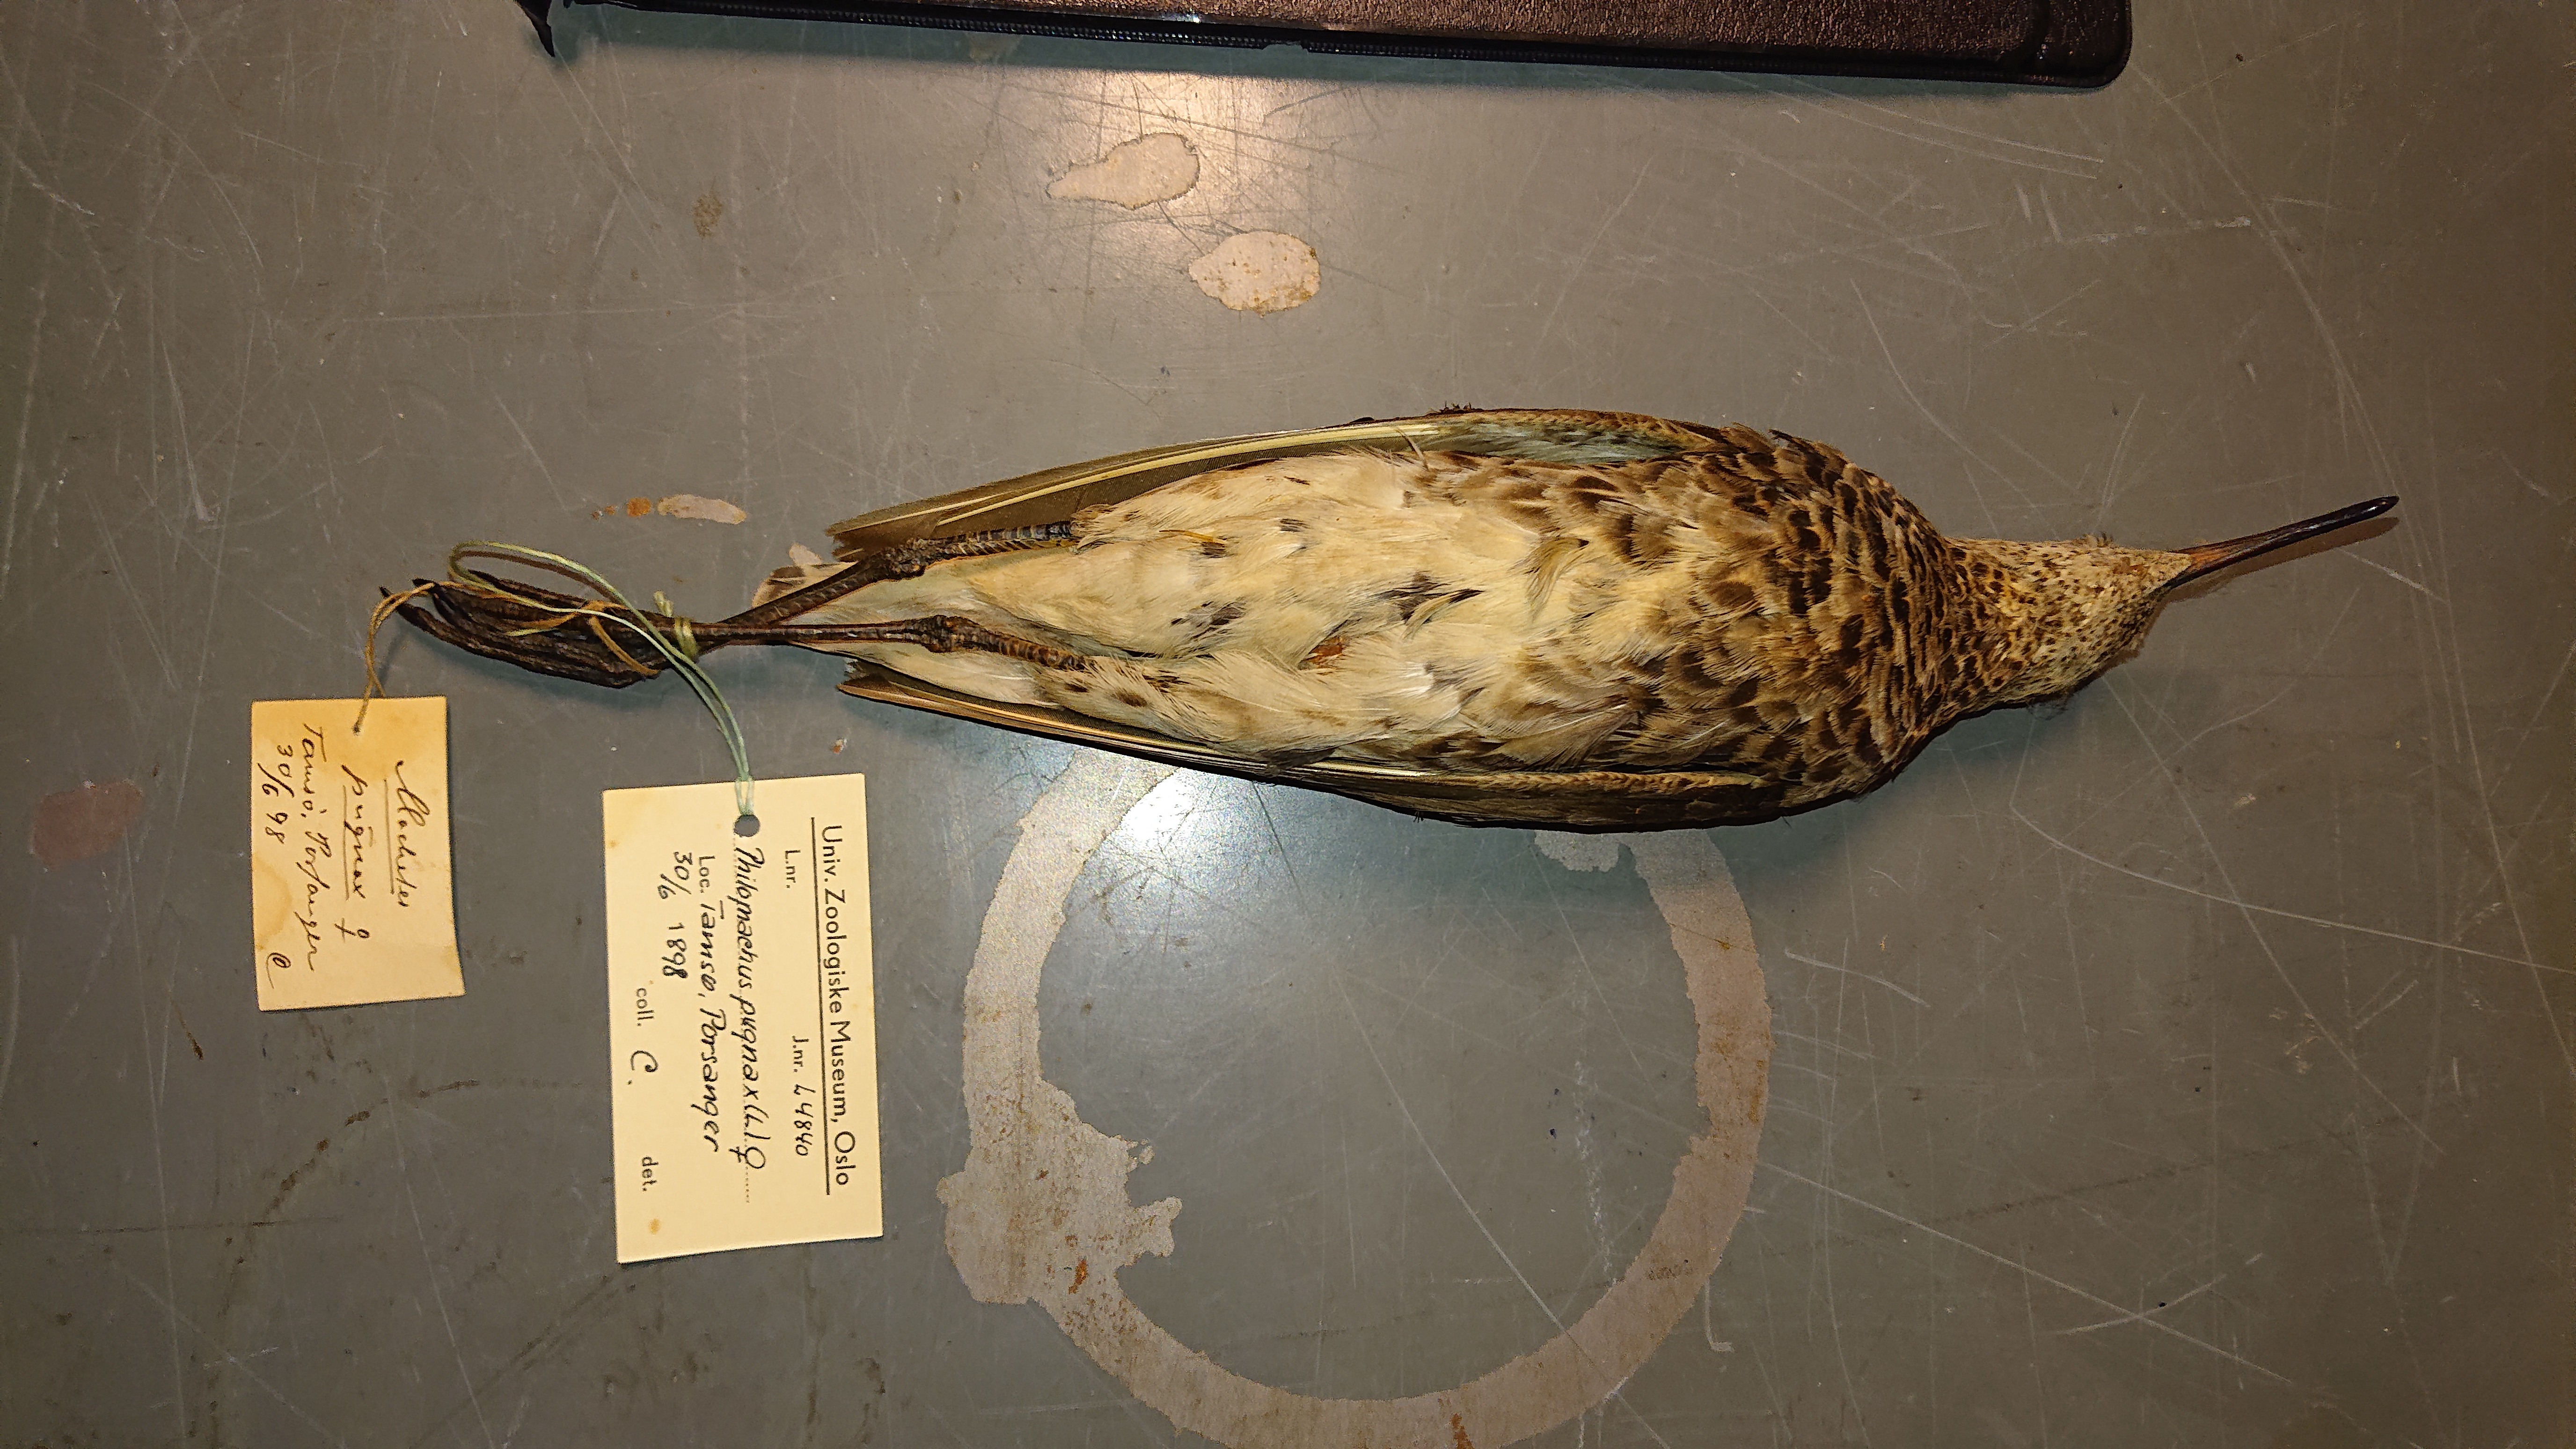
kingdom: Animalia
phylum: Chordata
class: Aves
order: Charadriiformes
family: Scolopacidae
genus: Calidris
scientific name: Calidris pugnax
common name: Ruff
